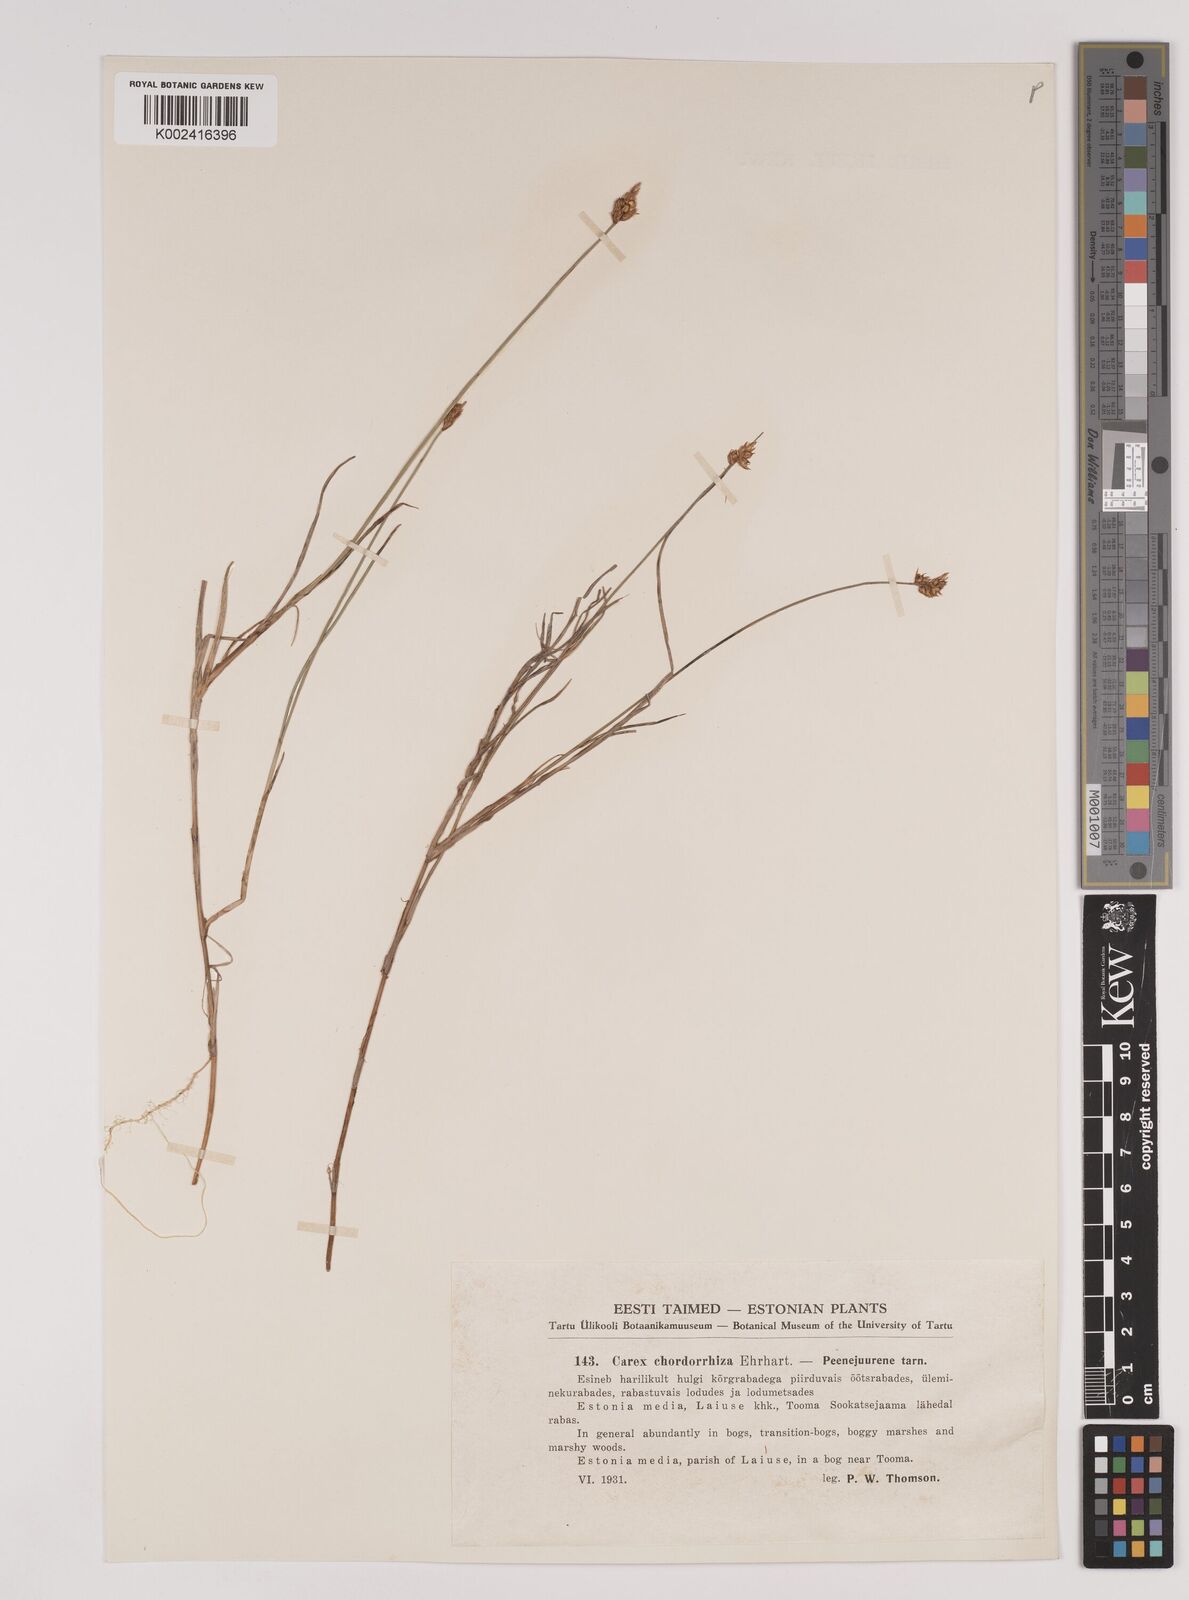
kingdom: Plantae
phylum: Tracheophyta
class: Liliopsida
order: Poales
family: Cyperaceae
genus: Carex
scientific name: Carex chordorrhiza
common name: String sedge
